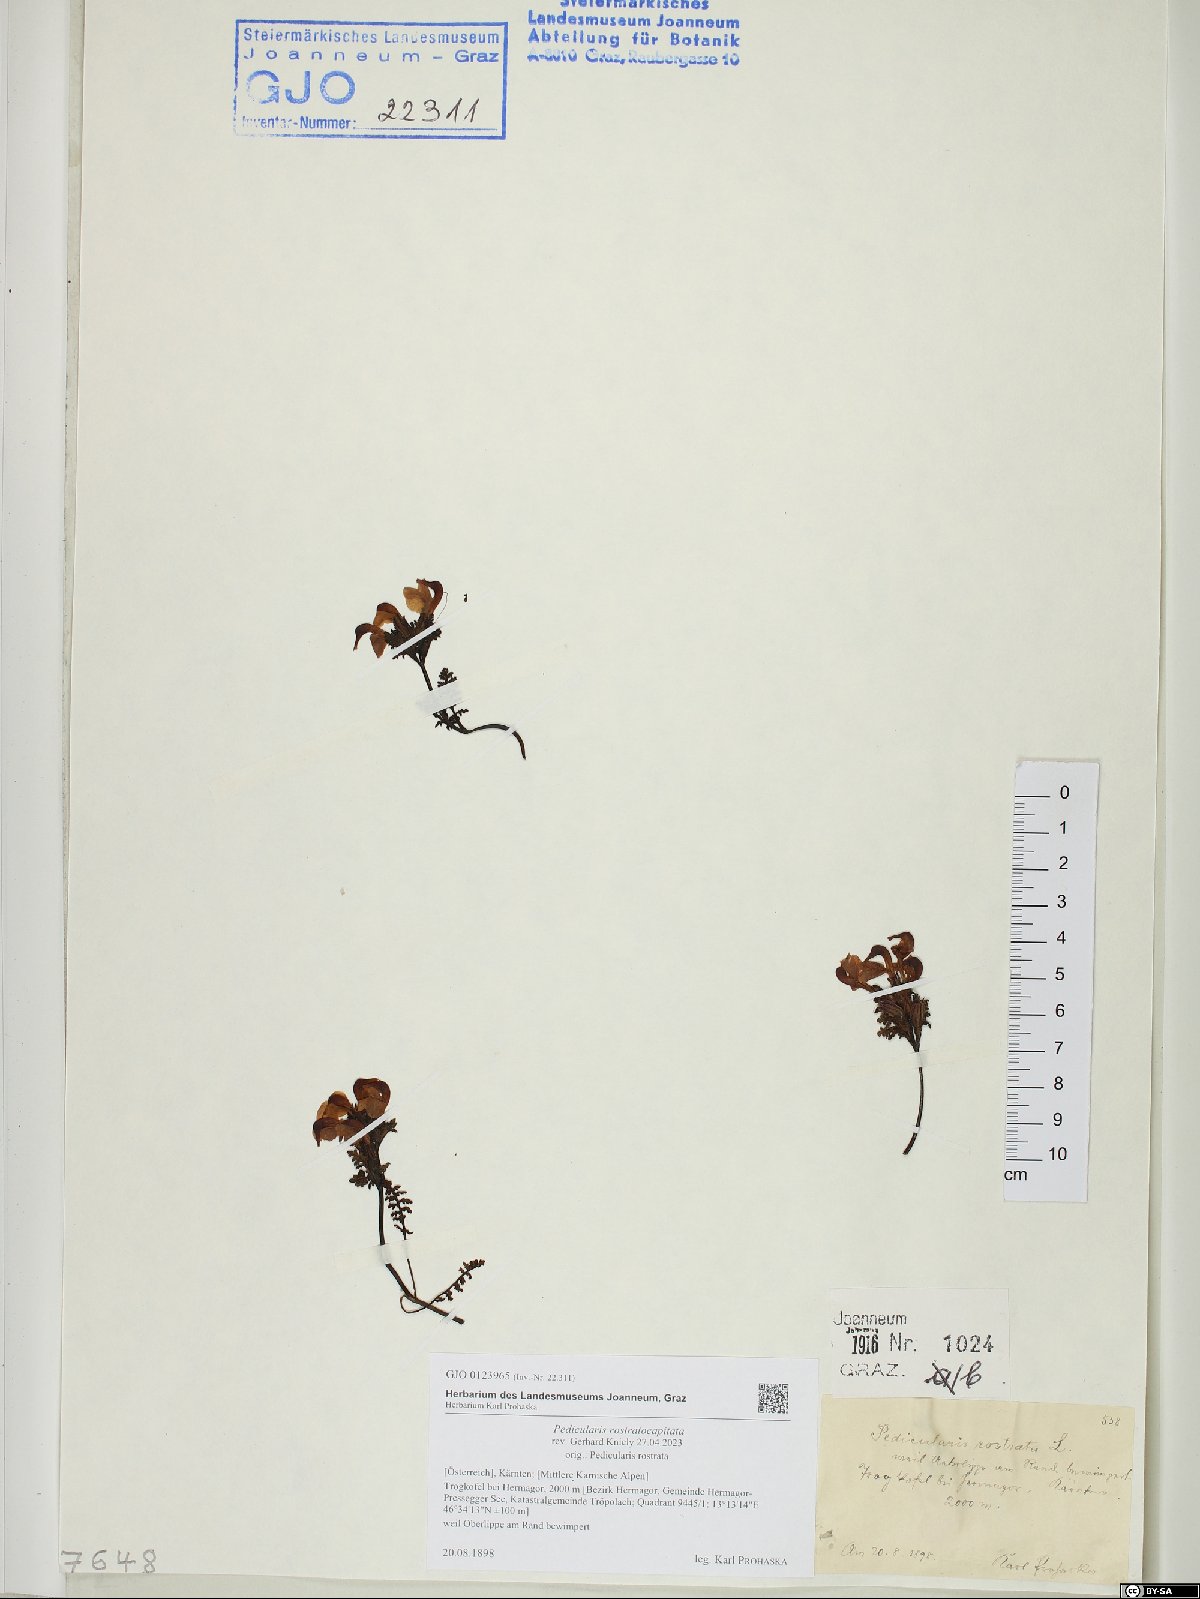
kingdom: Plantae
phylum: Tracheophyta
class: Magnoliopsida
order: Lamiales
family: Orobanchaceae
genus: Pedicularis
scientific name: Pedicularis rostratocapitata
